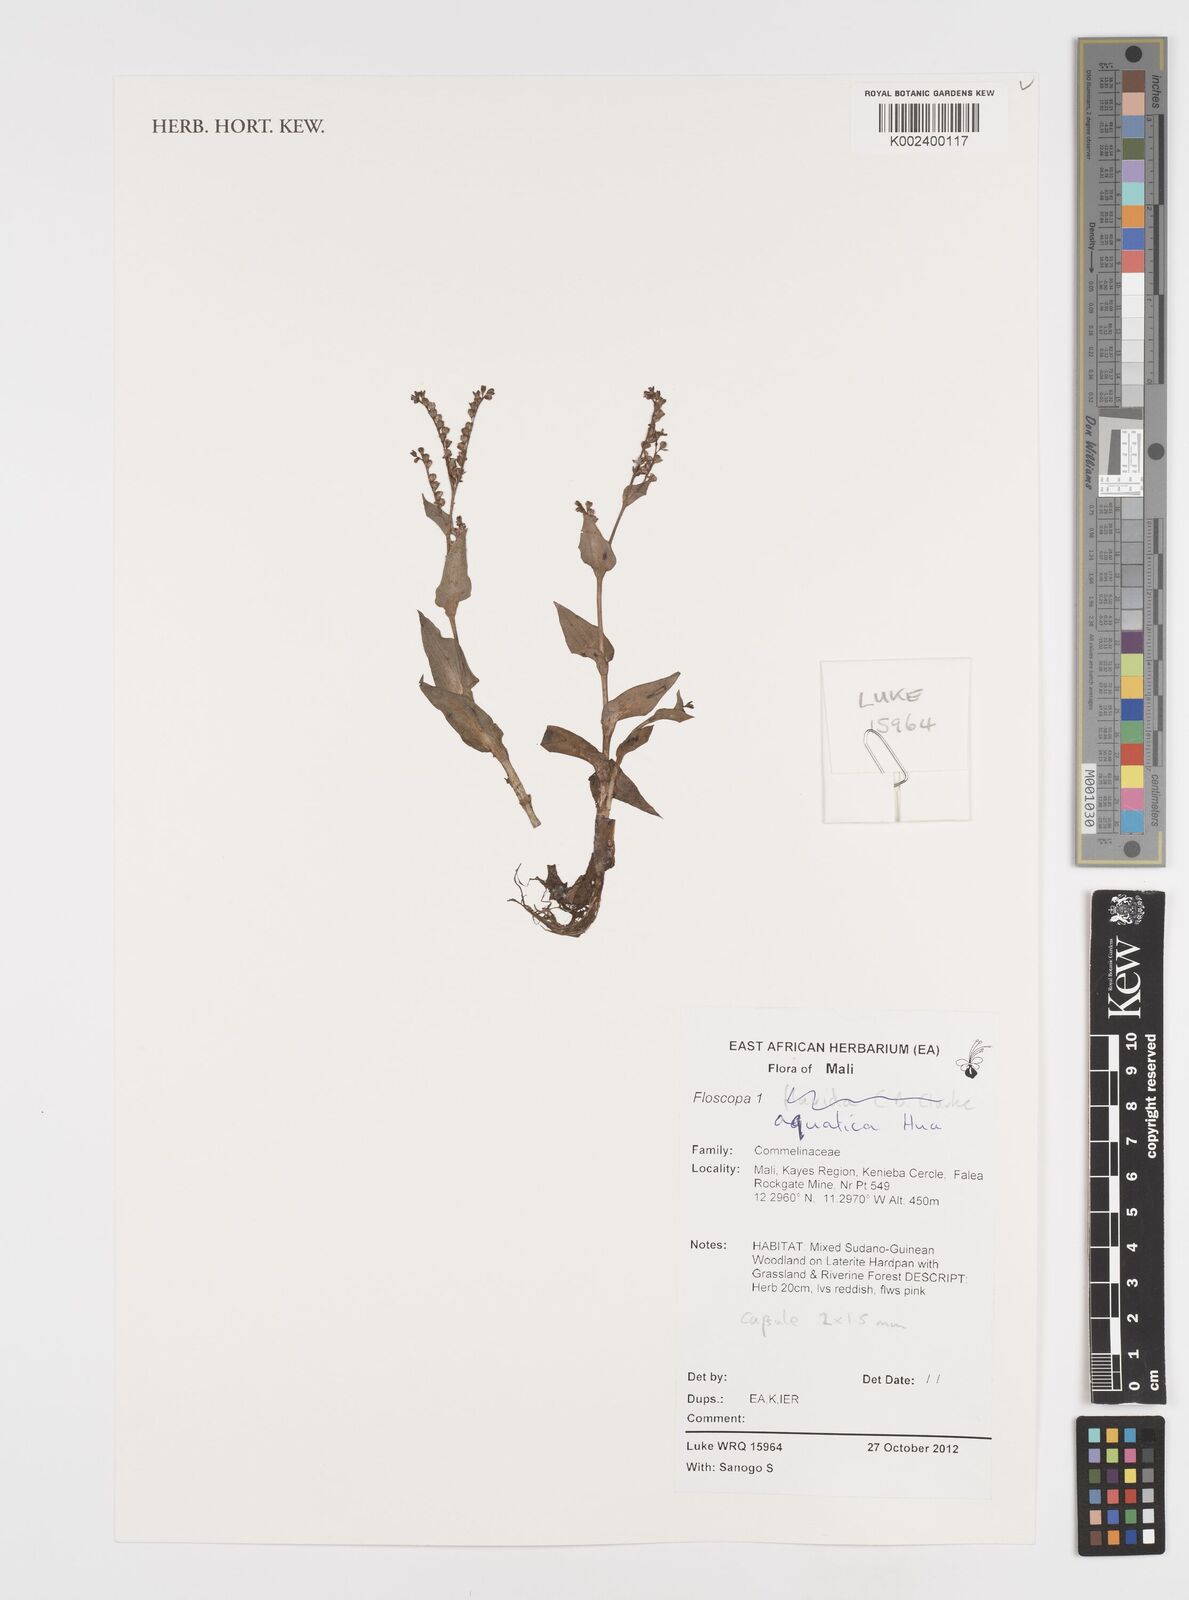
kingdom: Plantae
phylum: Tracheophyta
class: Liliopsida
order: Commelinales
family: Commelinaceae
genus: Floscopa
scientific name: Floscopa aquatica
